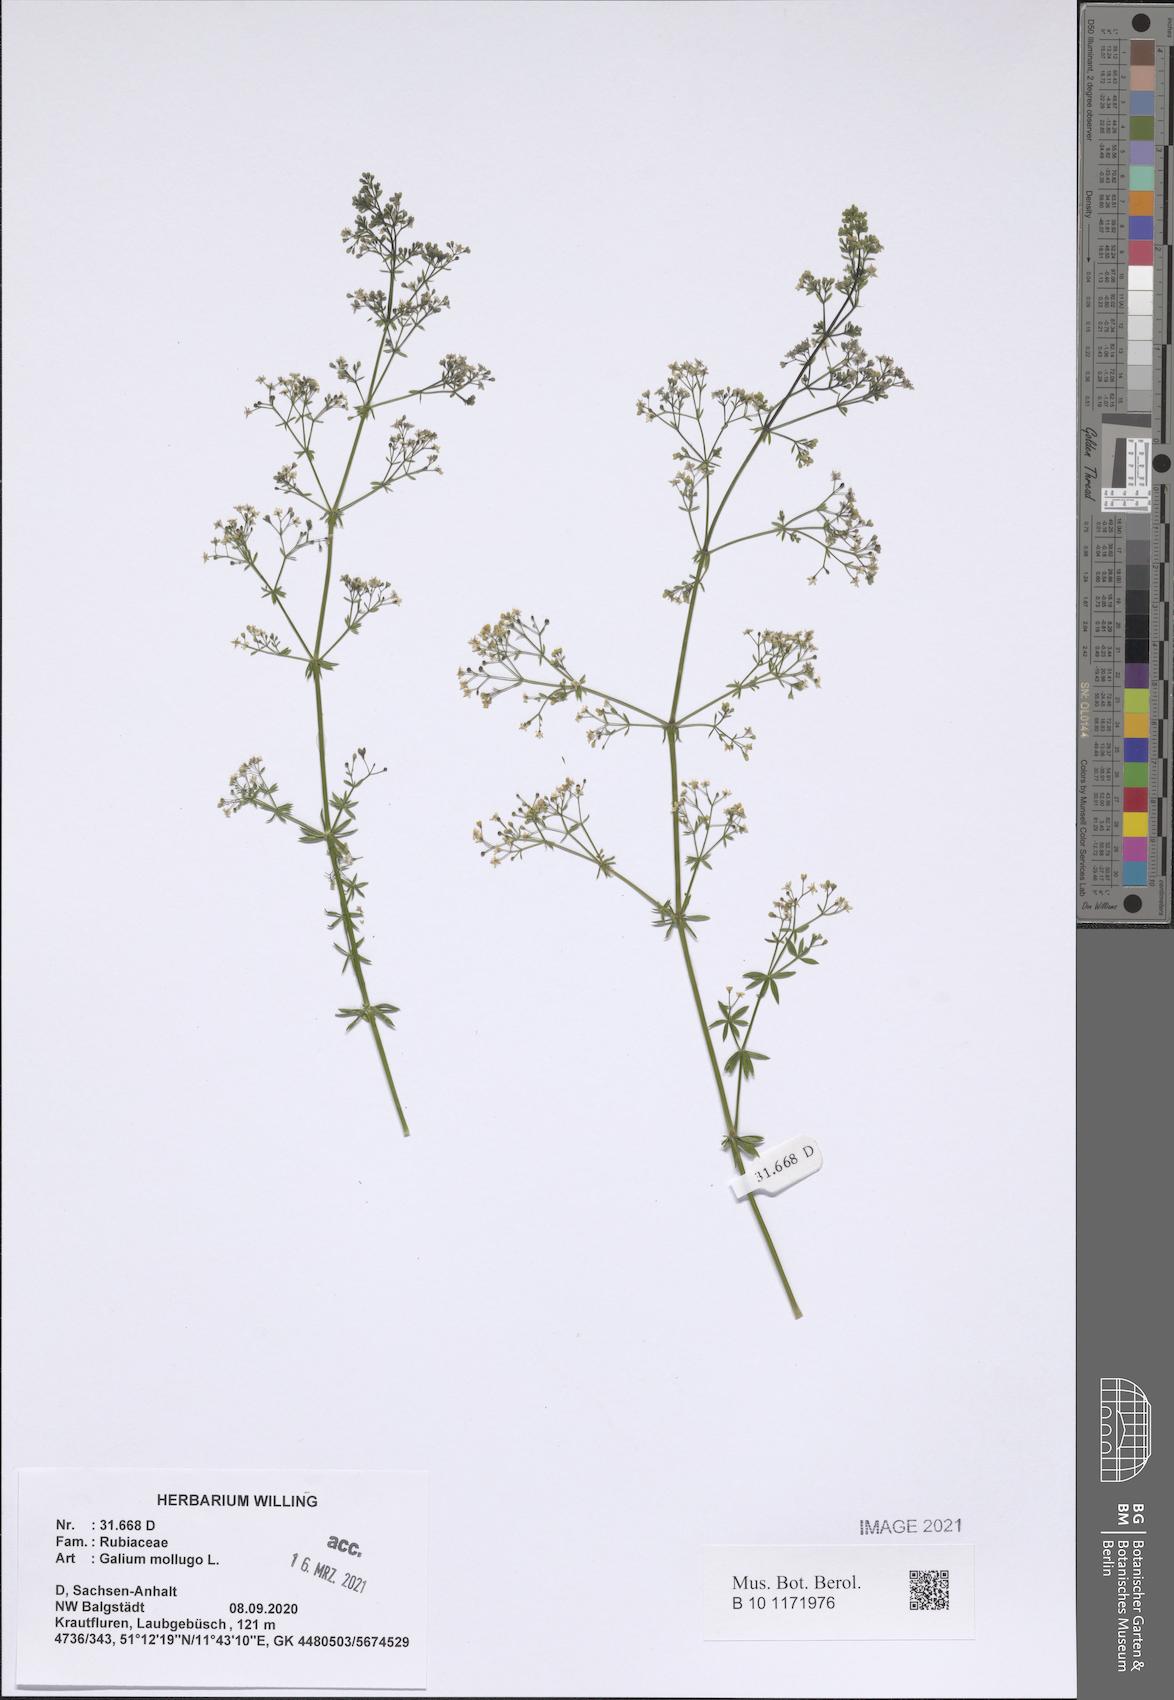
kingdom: Plantae
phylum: Tracheophyta
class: Magnoliopsida
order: Gentianales
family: Rubiaceae
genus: Galium
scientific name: Galium mollugo
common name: Hedge bedstraw
